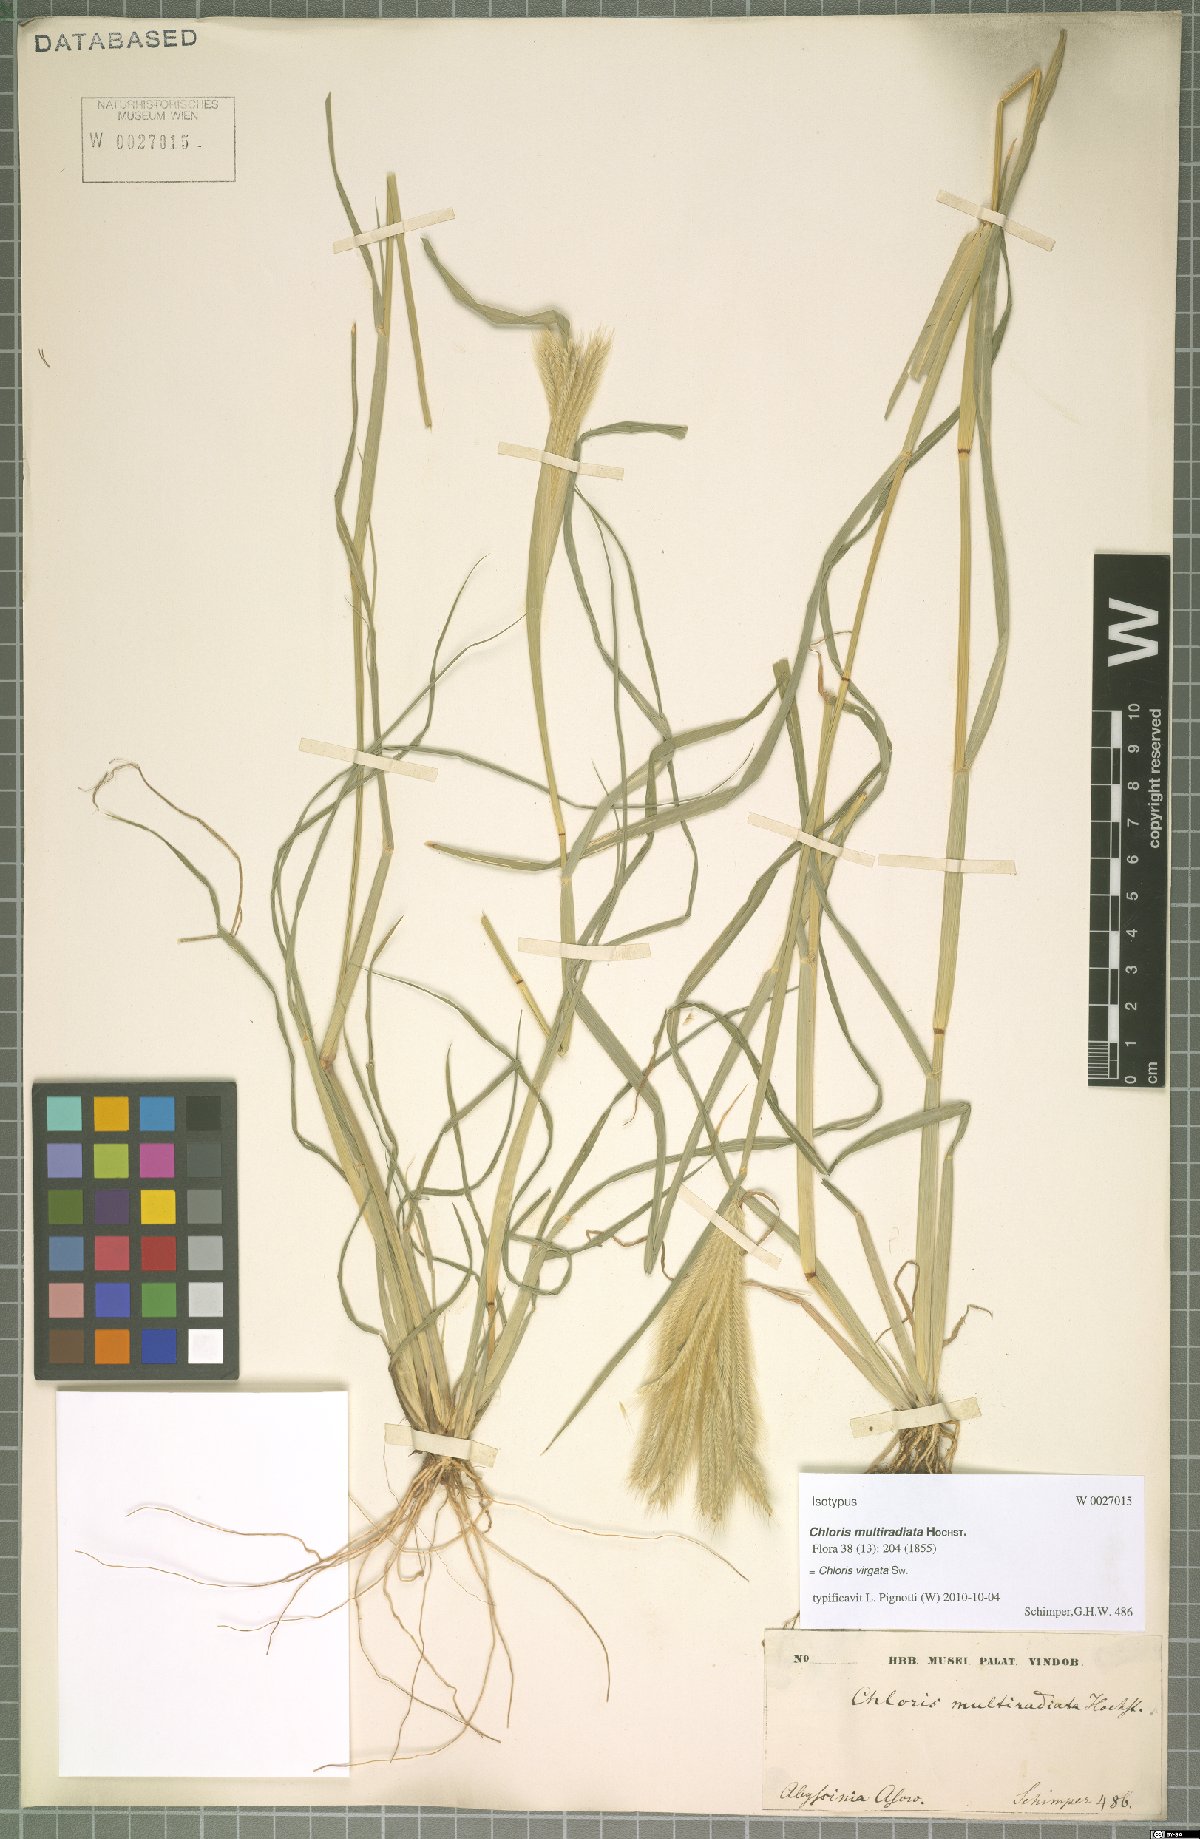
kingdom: Plantae
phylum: Tracheophyta
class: Liliopsida
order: Poales
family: Poaceae
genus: Chloris
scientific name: Chloris virgata
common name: Feathery rhodes-grass
